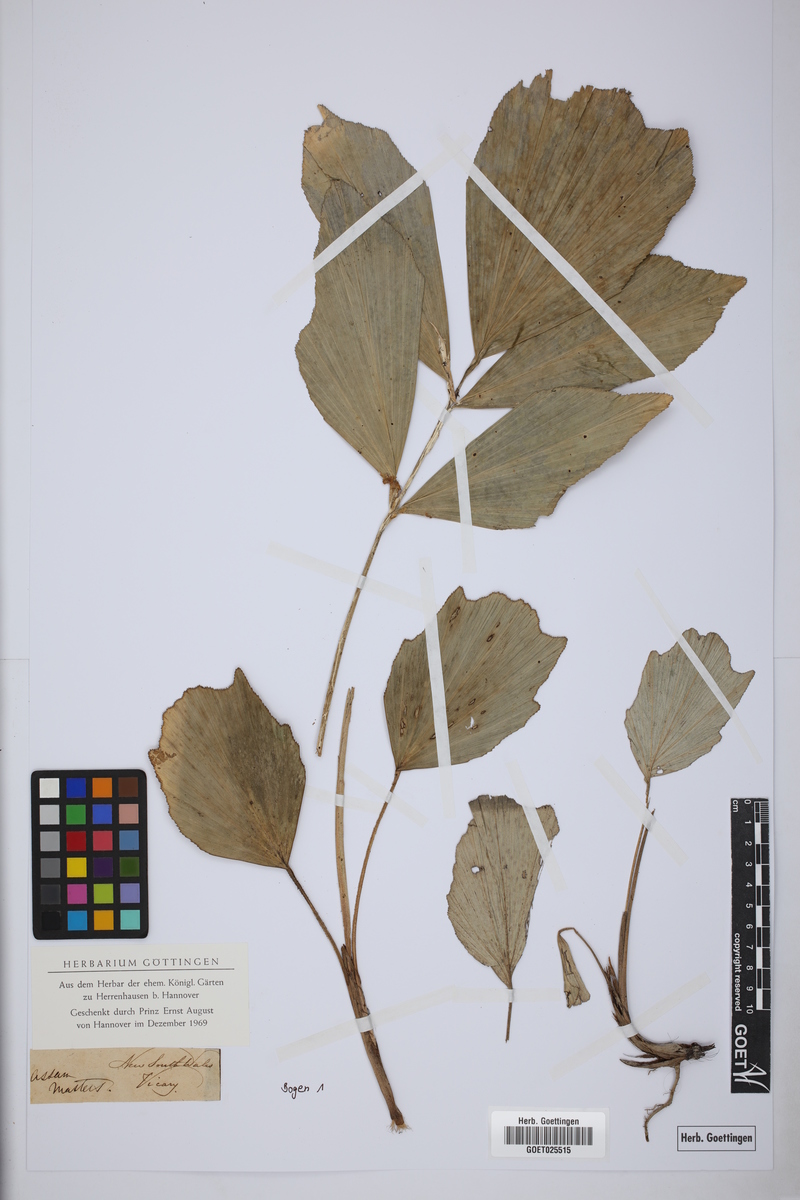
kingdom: Plantae
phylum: Tracheophyta
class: Liliopsida
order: Arecales
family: Arecaceae
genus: Wallichia
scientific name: Wallichia nana
